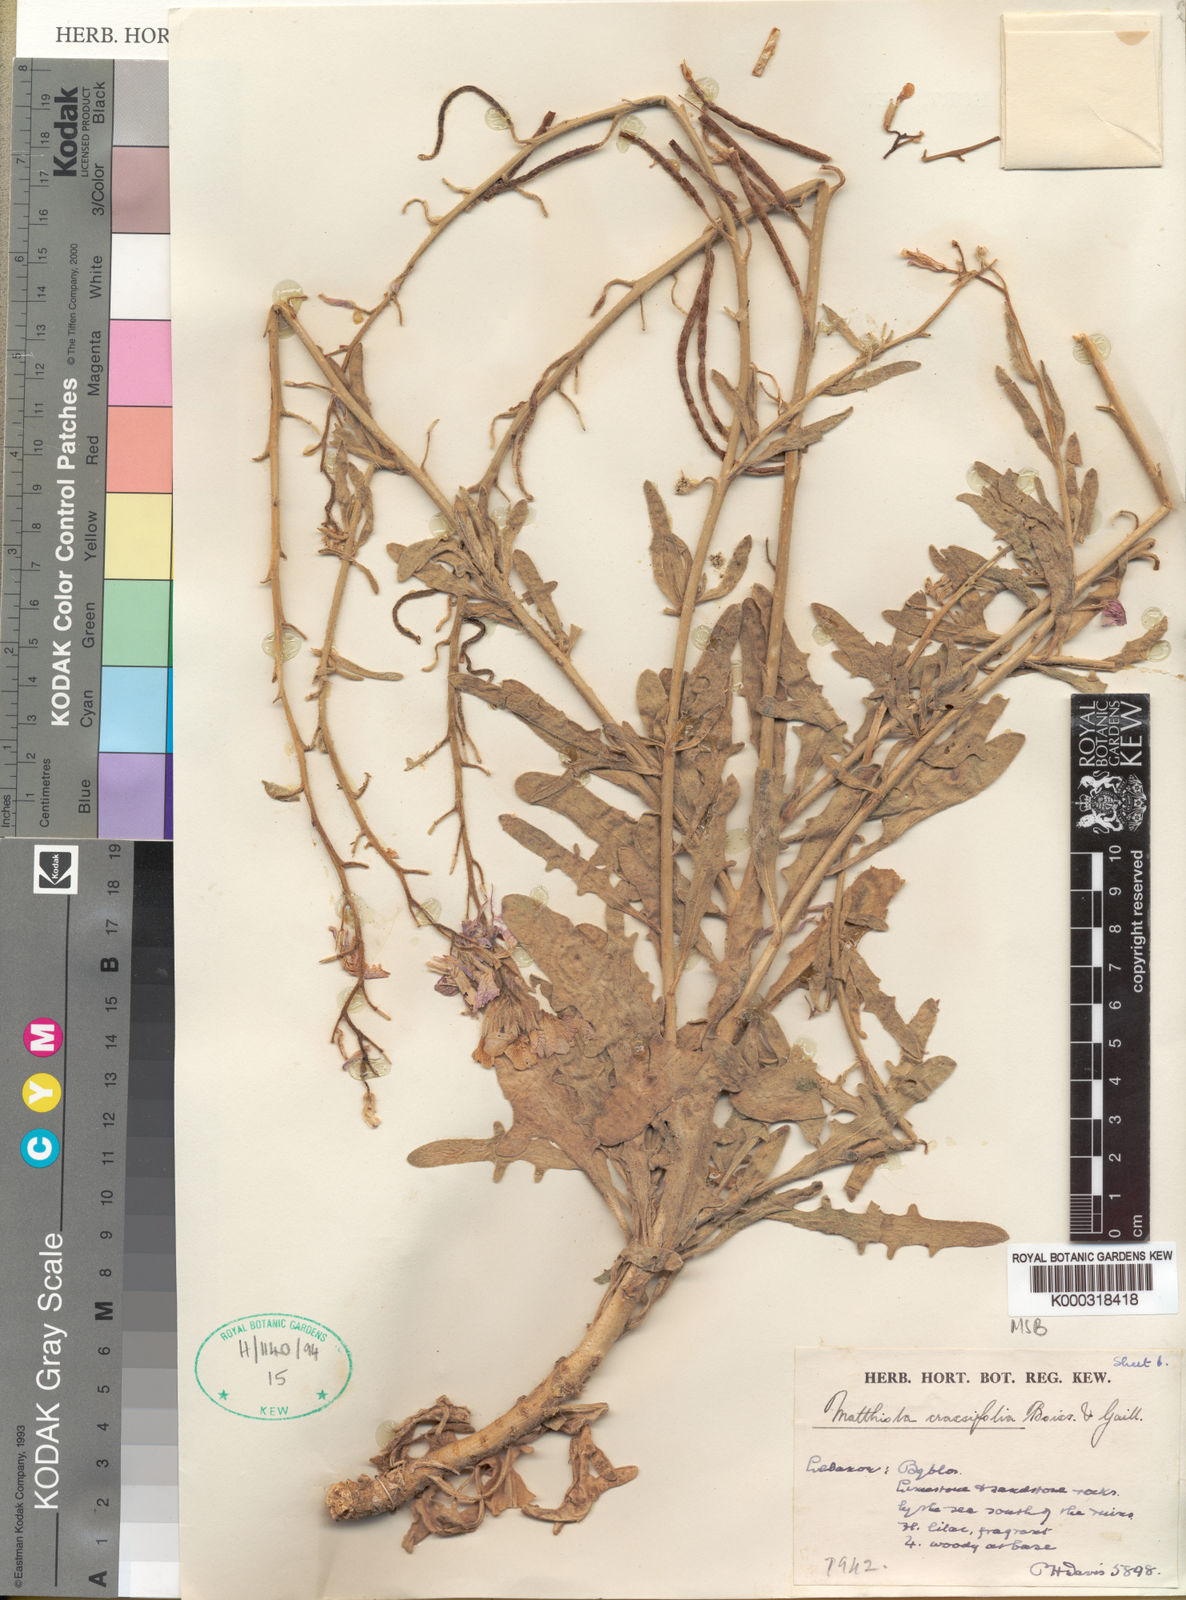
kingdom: Plantae
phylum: Tracheophyta
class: Magnoliopsida
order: Brassicales
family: Brassicaceae
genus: Matthiola
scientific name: Matthiola crassifolia
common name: Thick-leaved stock of beirut
